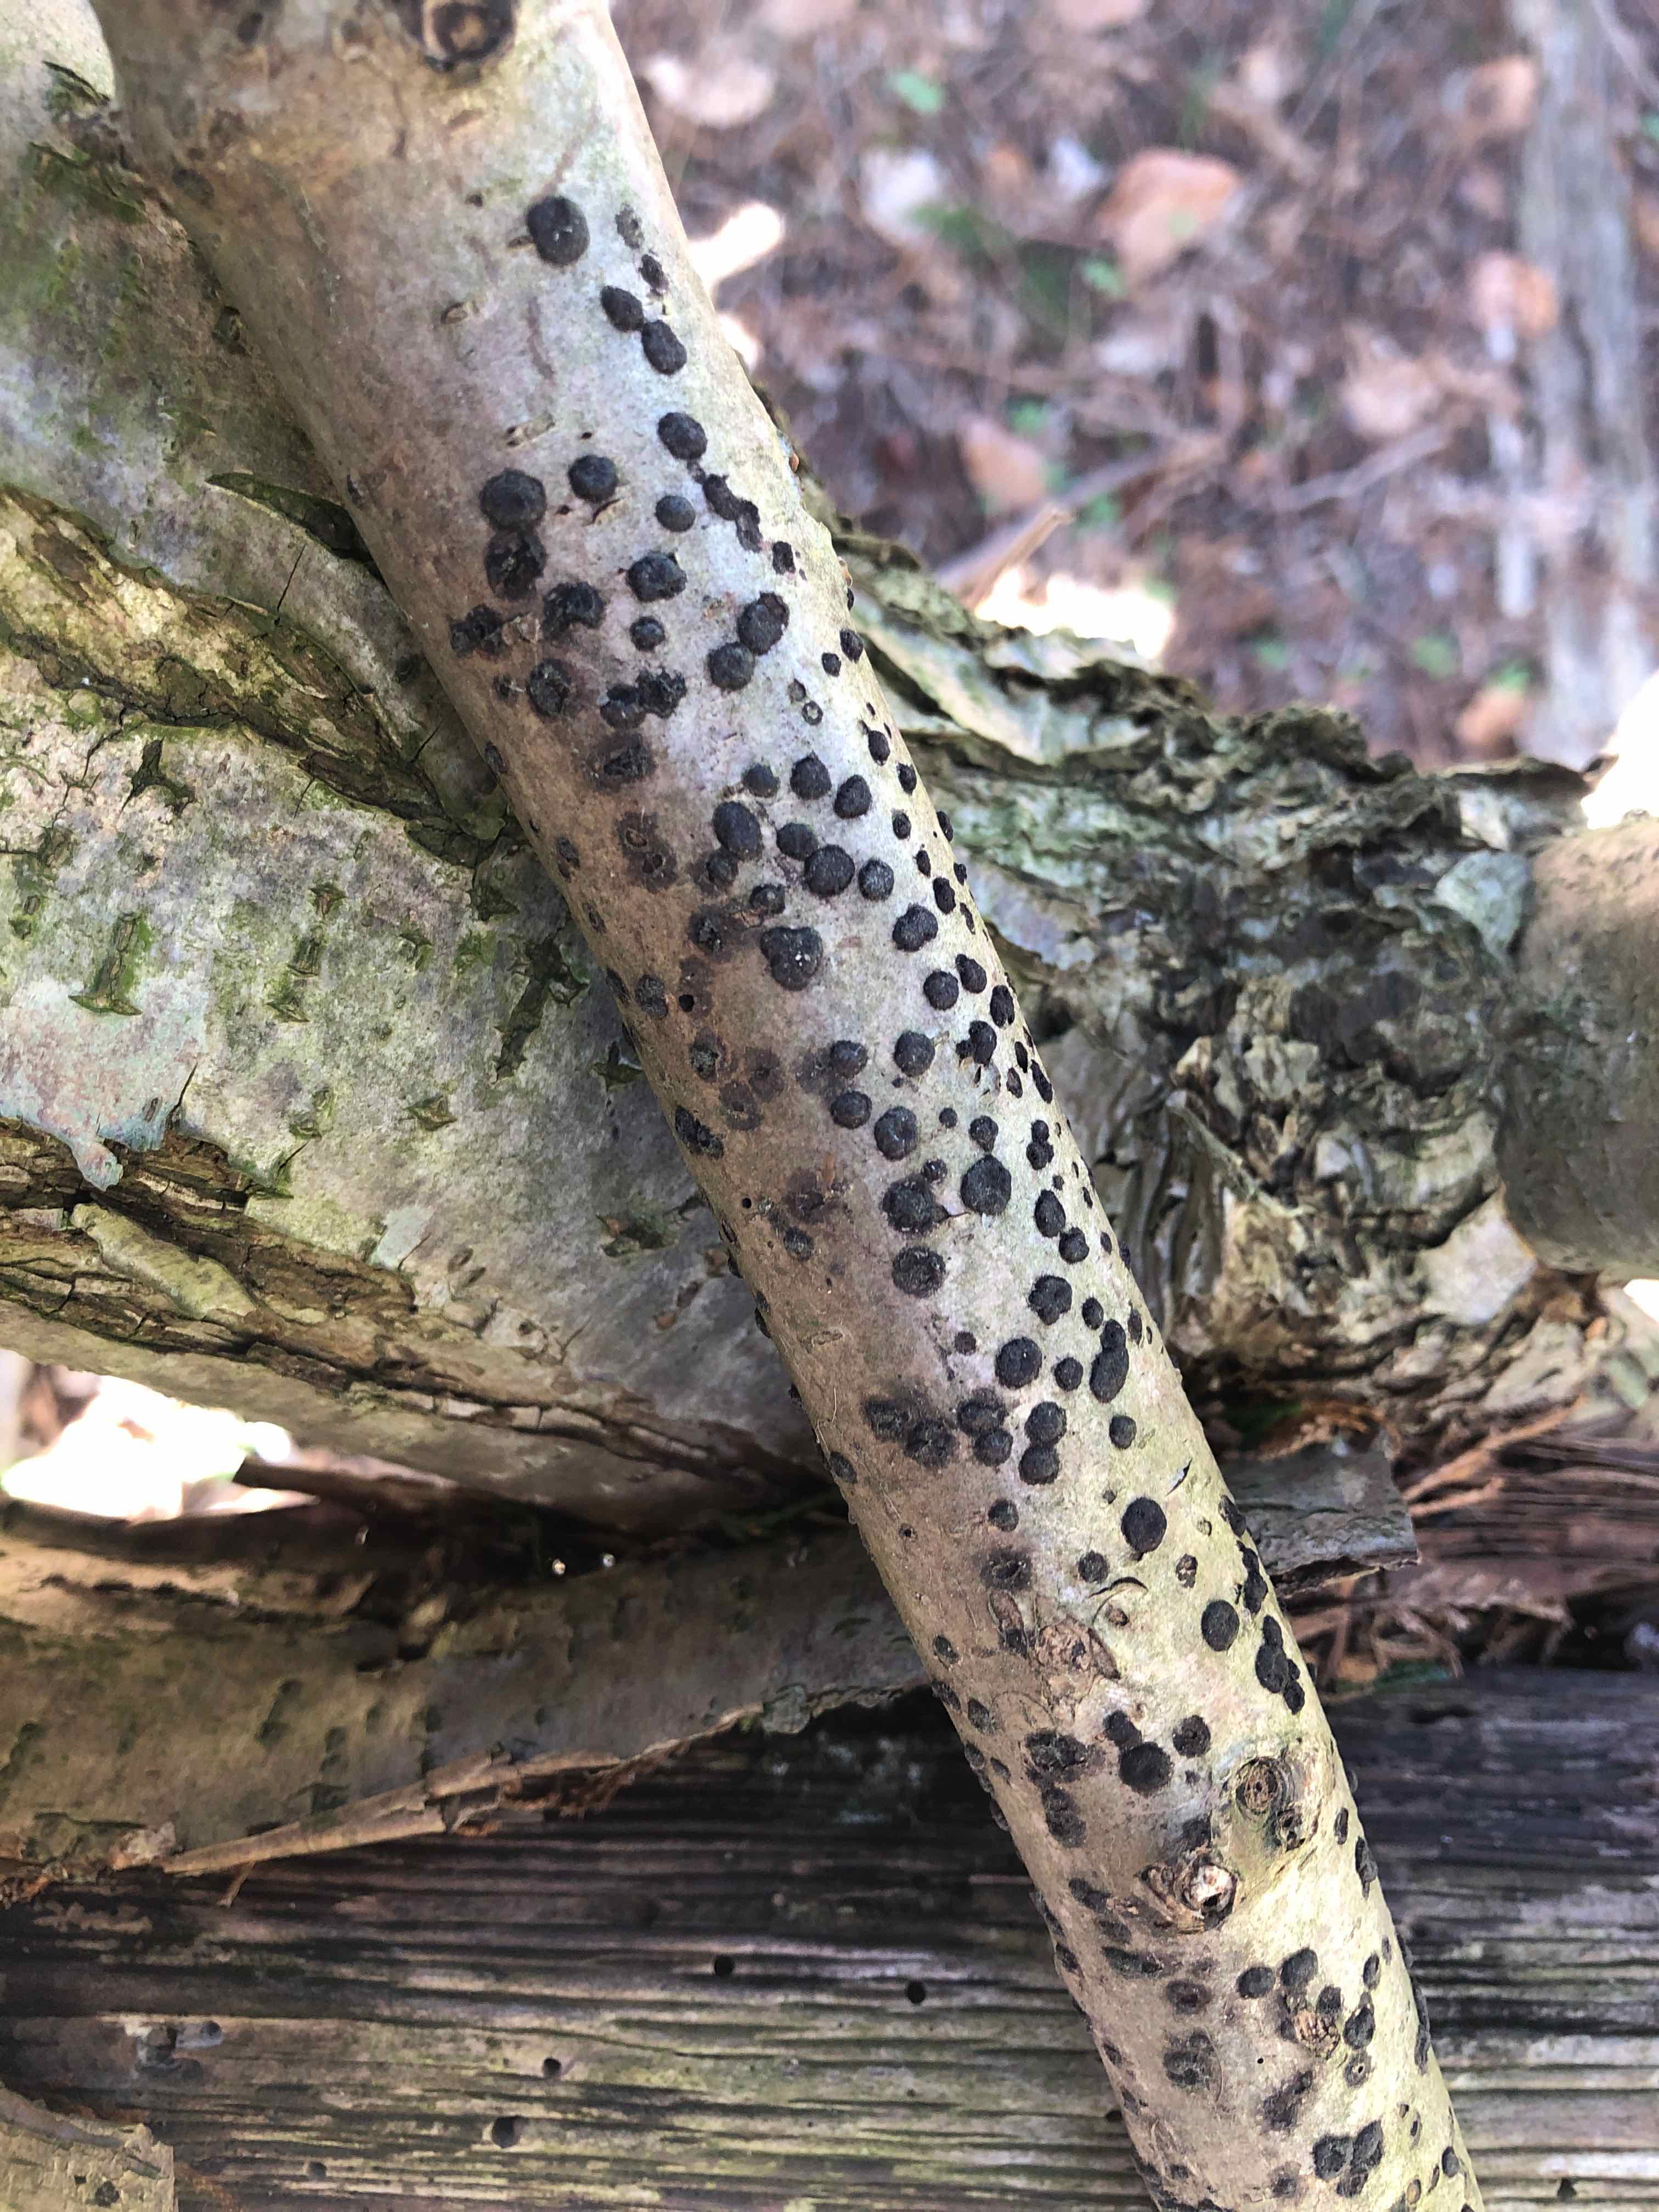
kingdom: Fungi
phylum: Ascomycota
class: Sordariomycetes
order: Xylariales
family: Hypoxylaceae
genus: Hypoxylon
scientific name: Hypoxylon fuscum
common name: kegleformet kulbær
